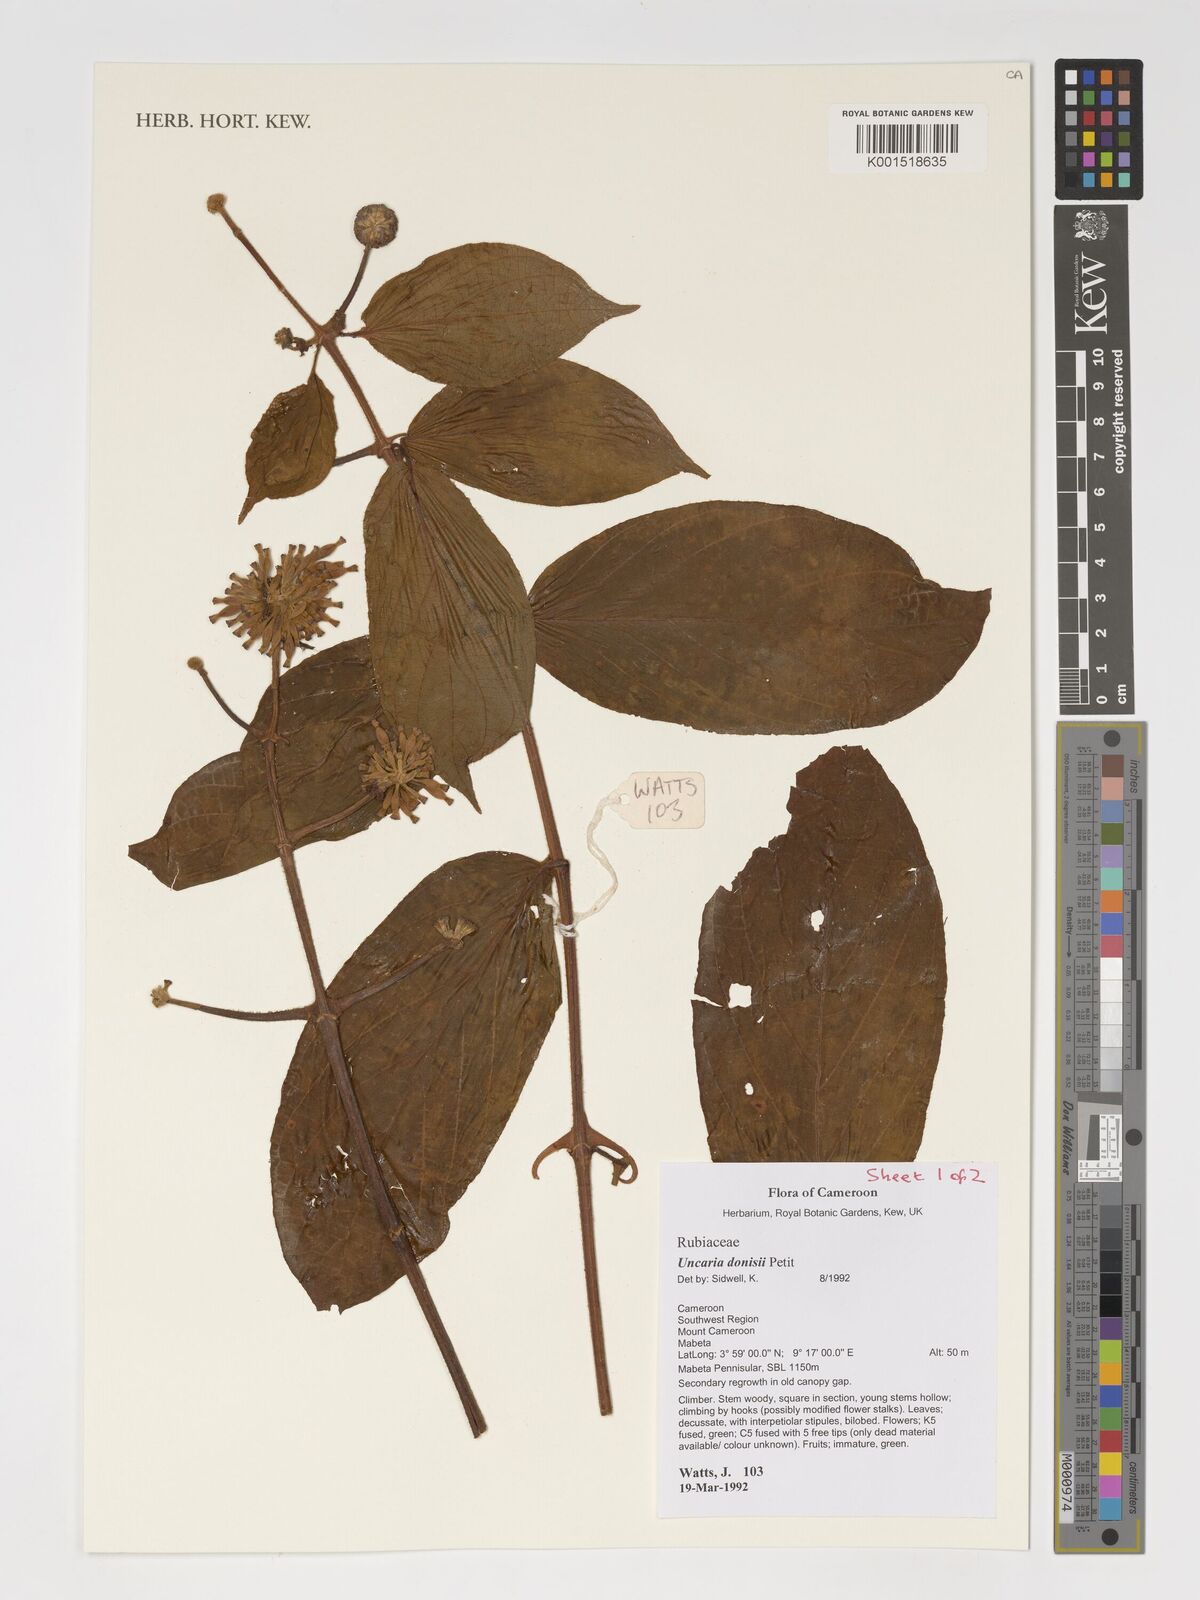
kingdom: Plantae
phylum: Tracheophyta
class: Magnoliopsida
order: Gentianales
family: Rubiaceae
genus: Uncaria
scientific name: Uncaria donisii
